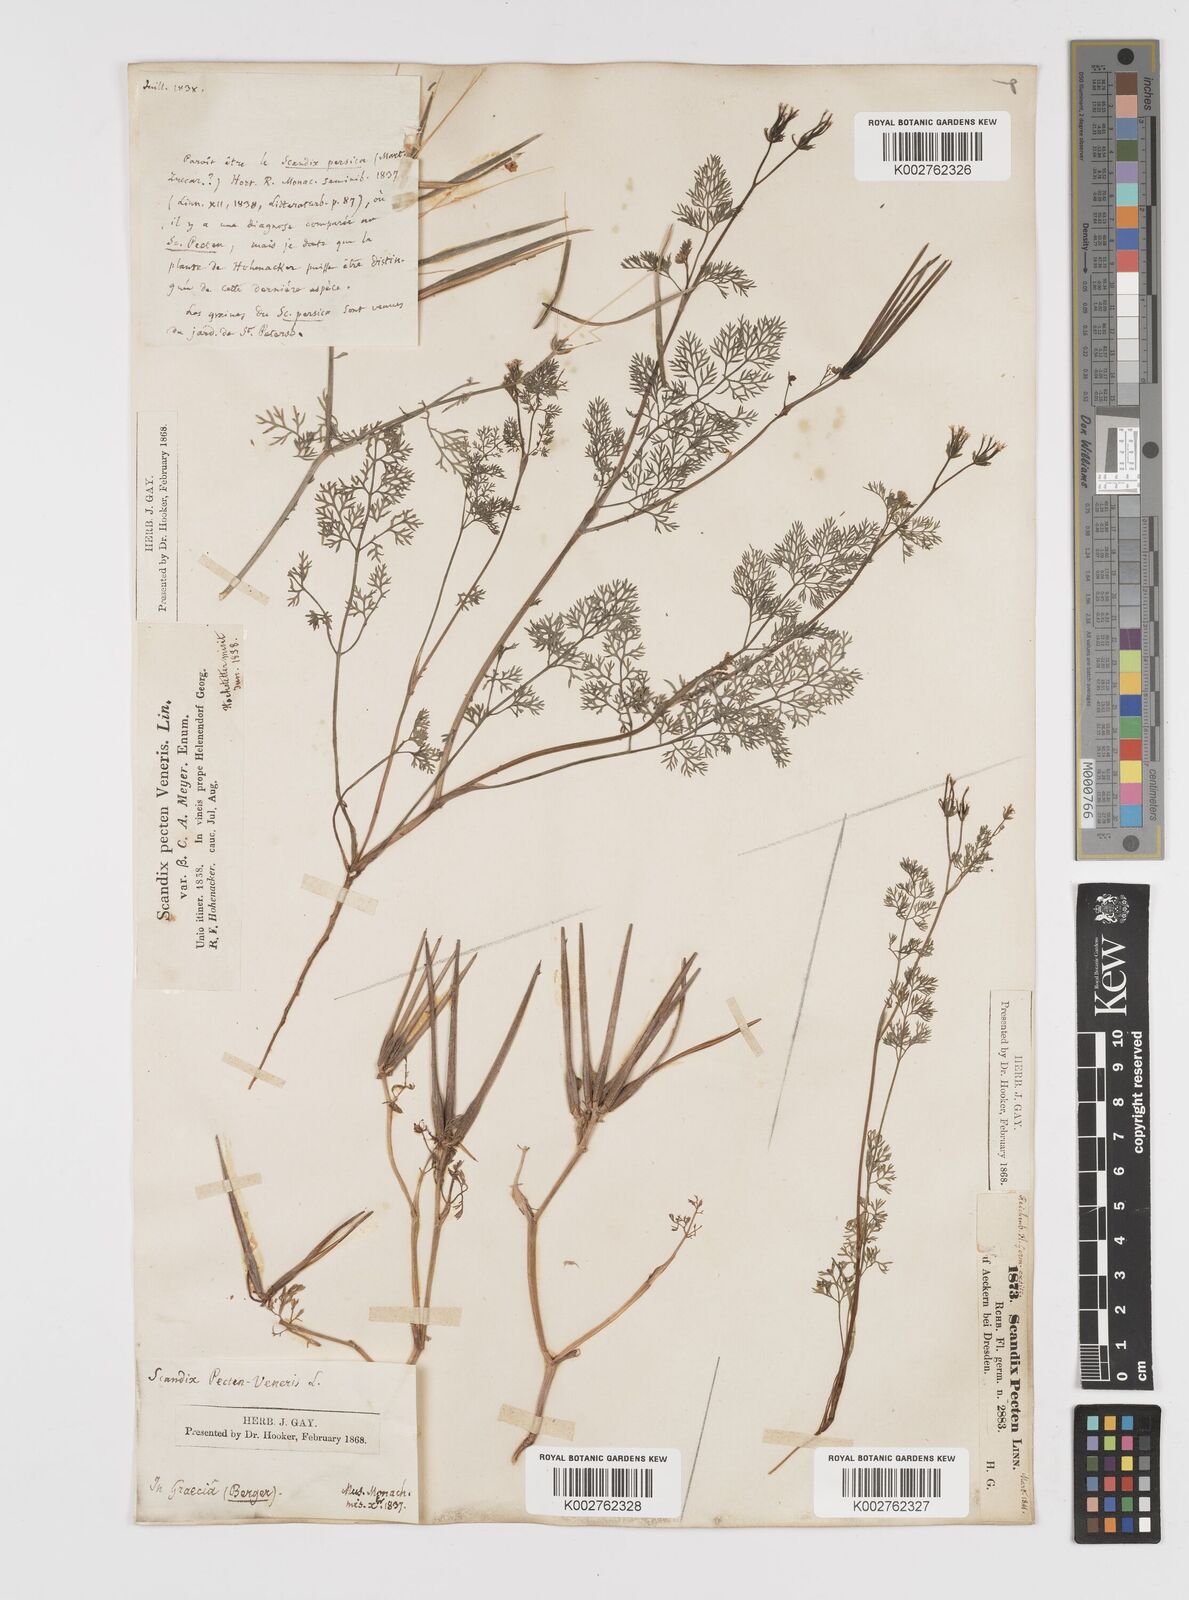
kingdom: Plantae
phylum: Tracheophyta
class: Magnoliopsida
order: Apiales
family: Apiaceae
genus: Scandix
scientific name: Scandix pecten-veneris
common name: Shepherd's-needle
